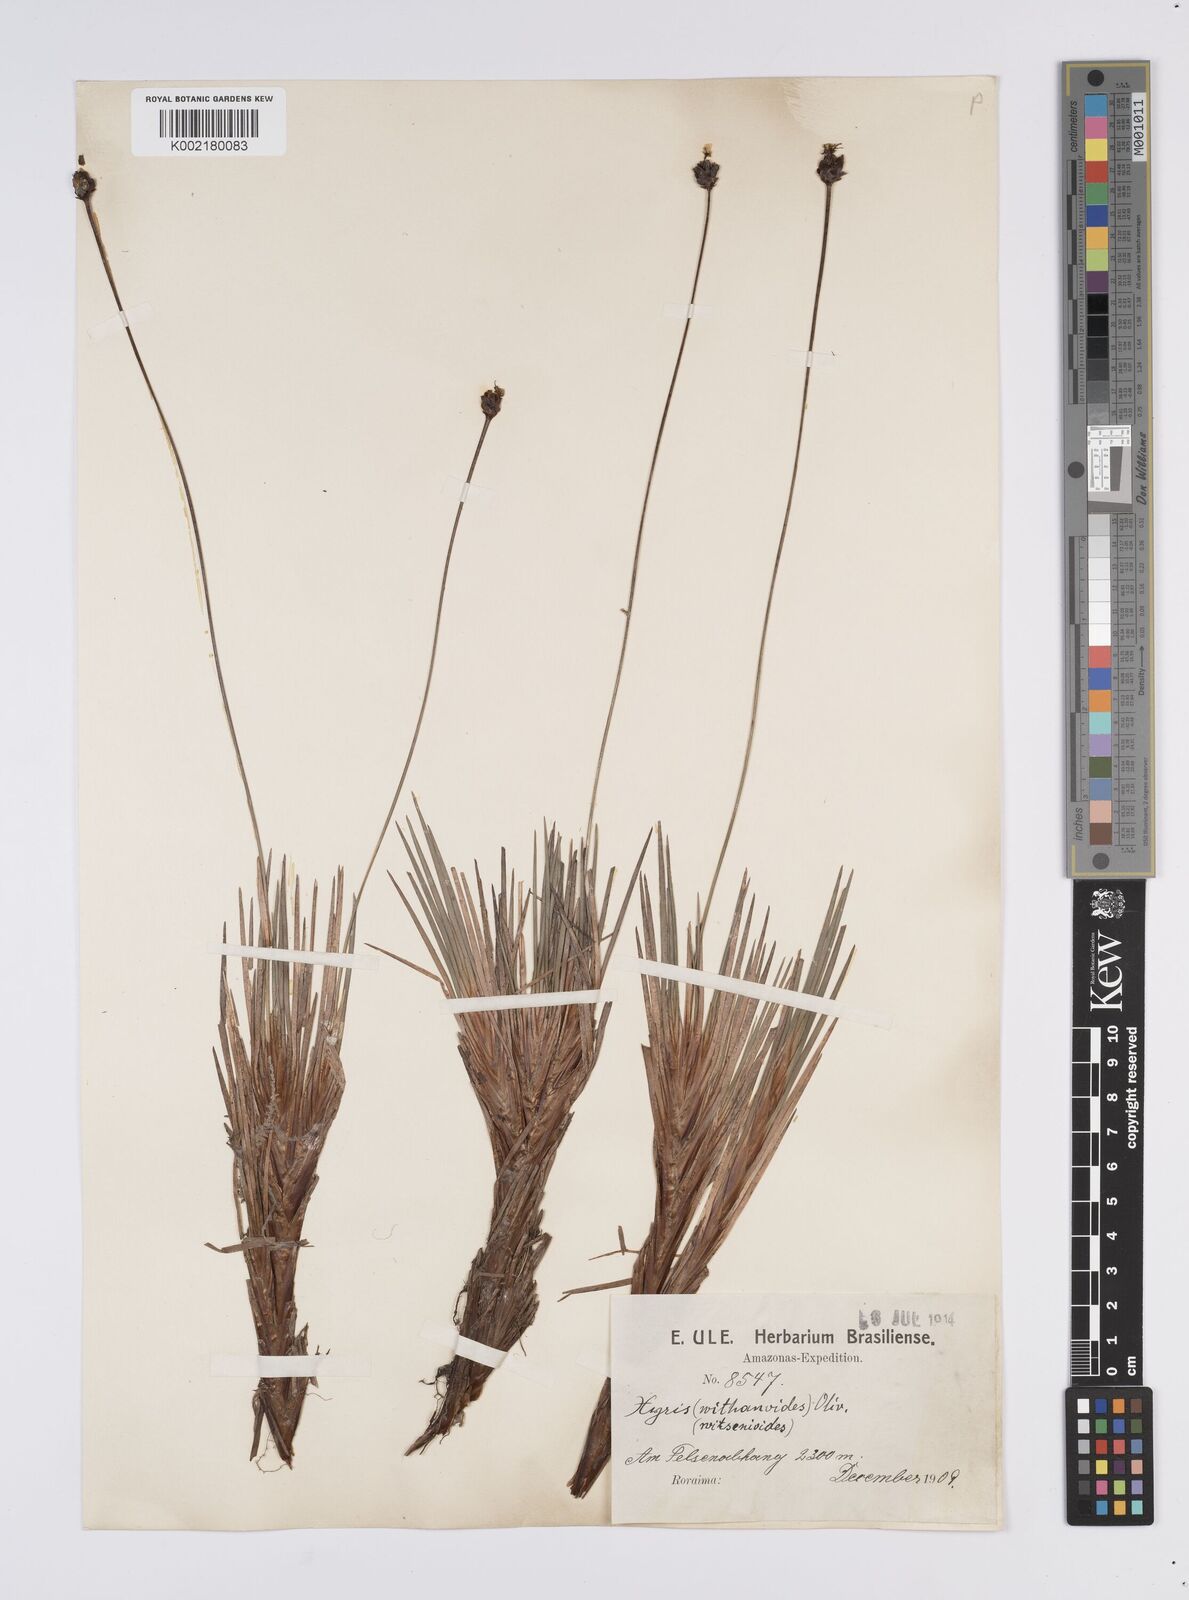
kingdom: Plantae
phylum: Tracheophyta
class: Liliopsida
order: Poales
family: Xyridaceae
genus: Xyris
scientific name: Xyris witsenioides
